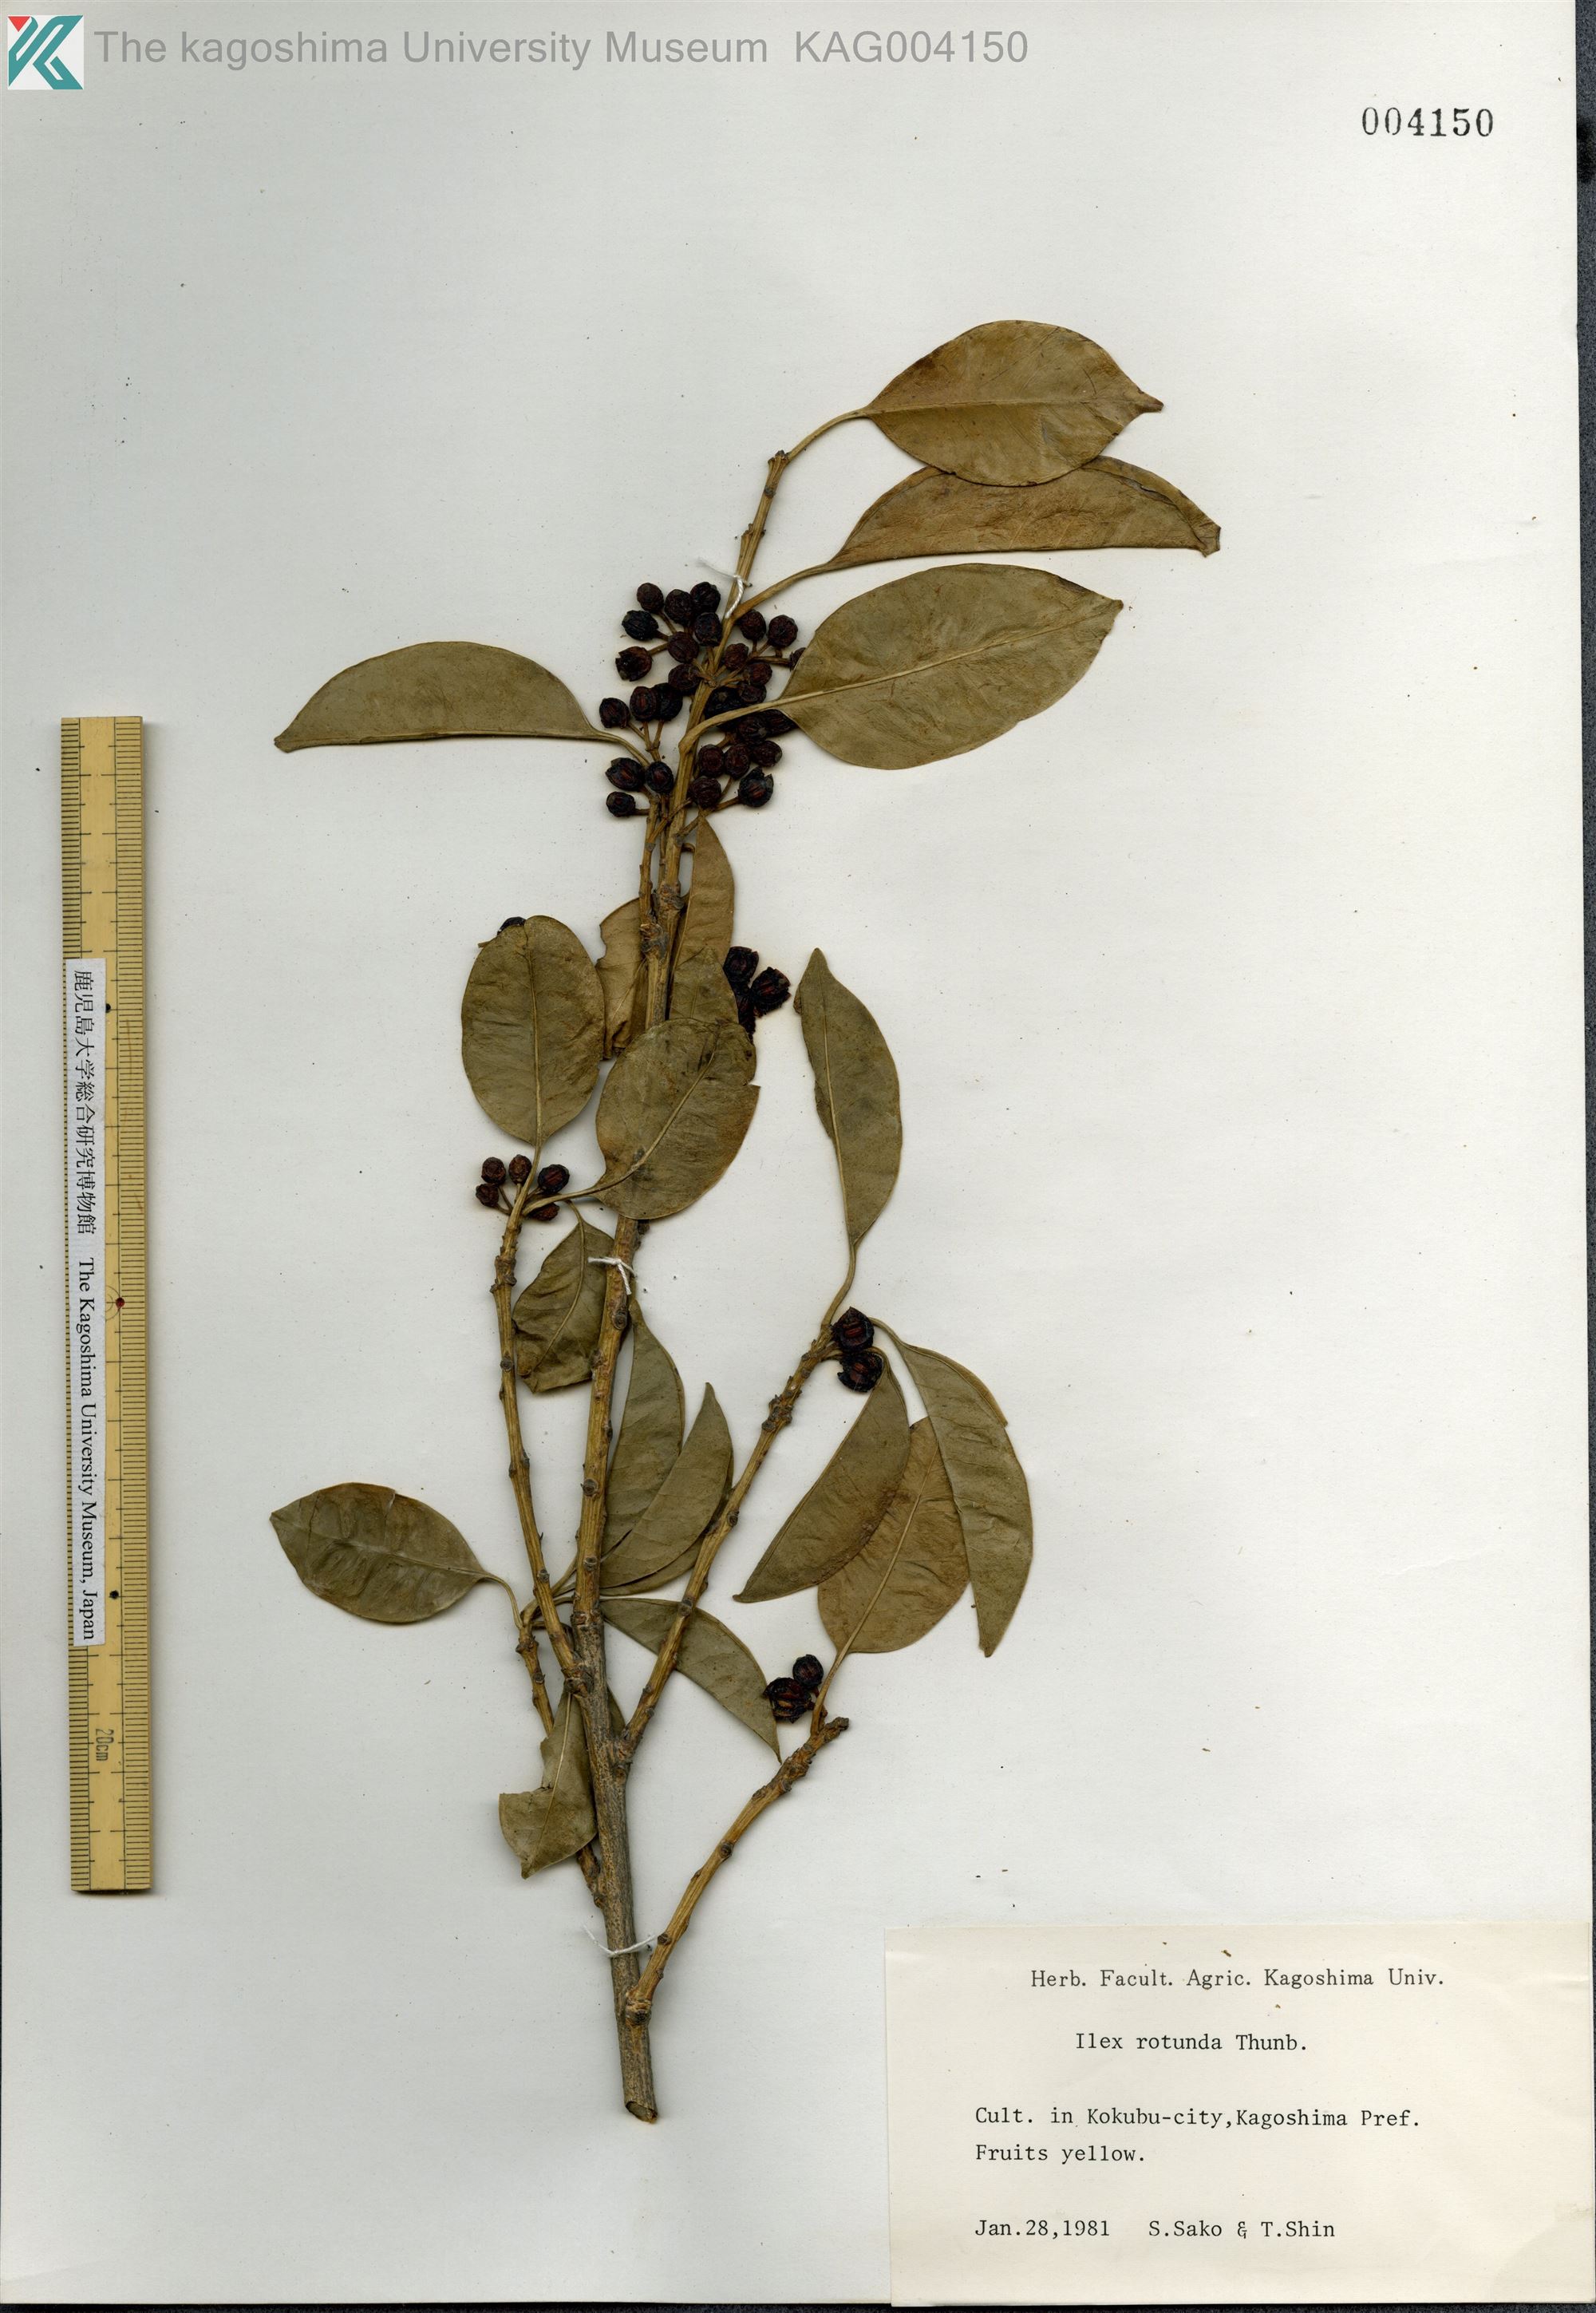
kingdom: Plantae
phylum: Tracheophyta
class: Magnoliopsida
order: Aquifoliales
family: Aquifoliaceae
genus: Ilex
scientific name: Ilex rotunda
